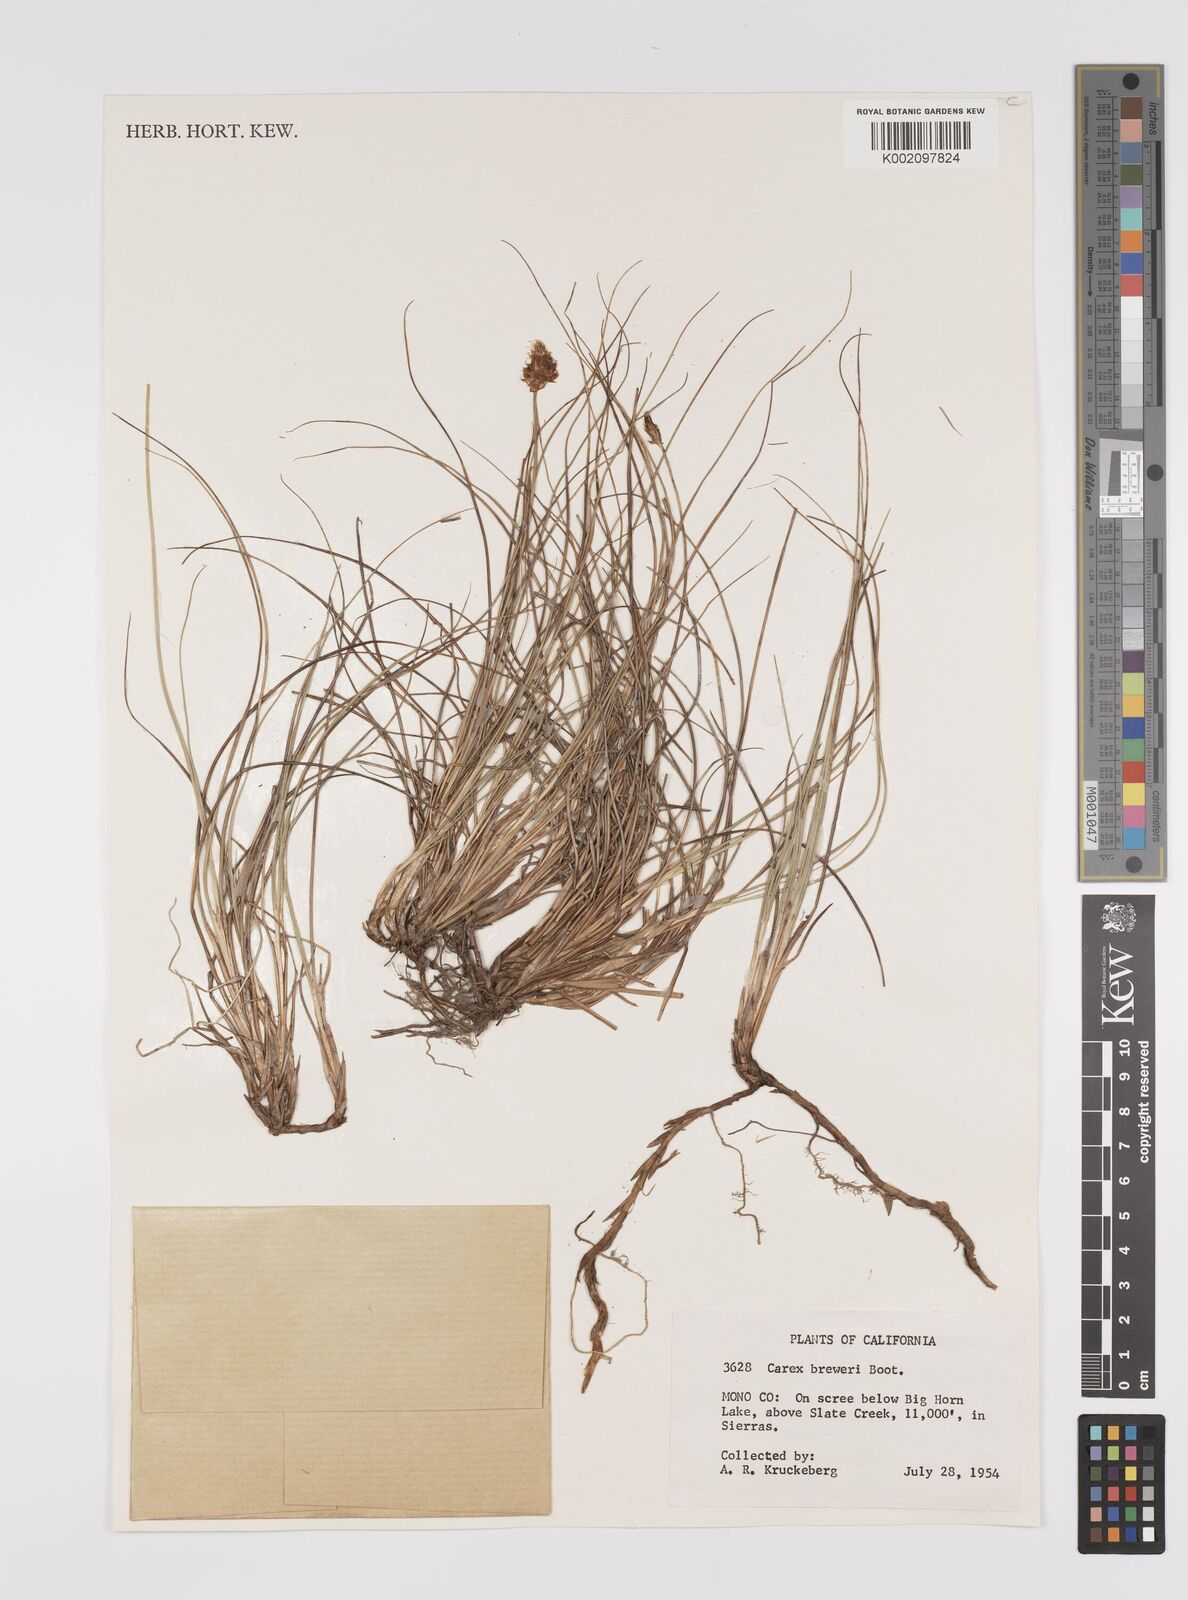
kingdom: Plantae
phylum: Tracheophyta
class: Liliopsida
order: Poales
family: Cyperaceae
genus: Carex
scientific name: Carex breweri
